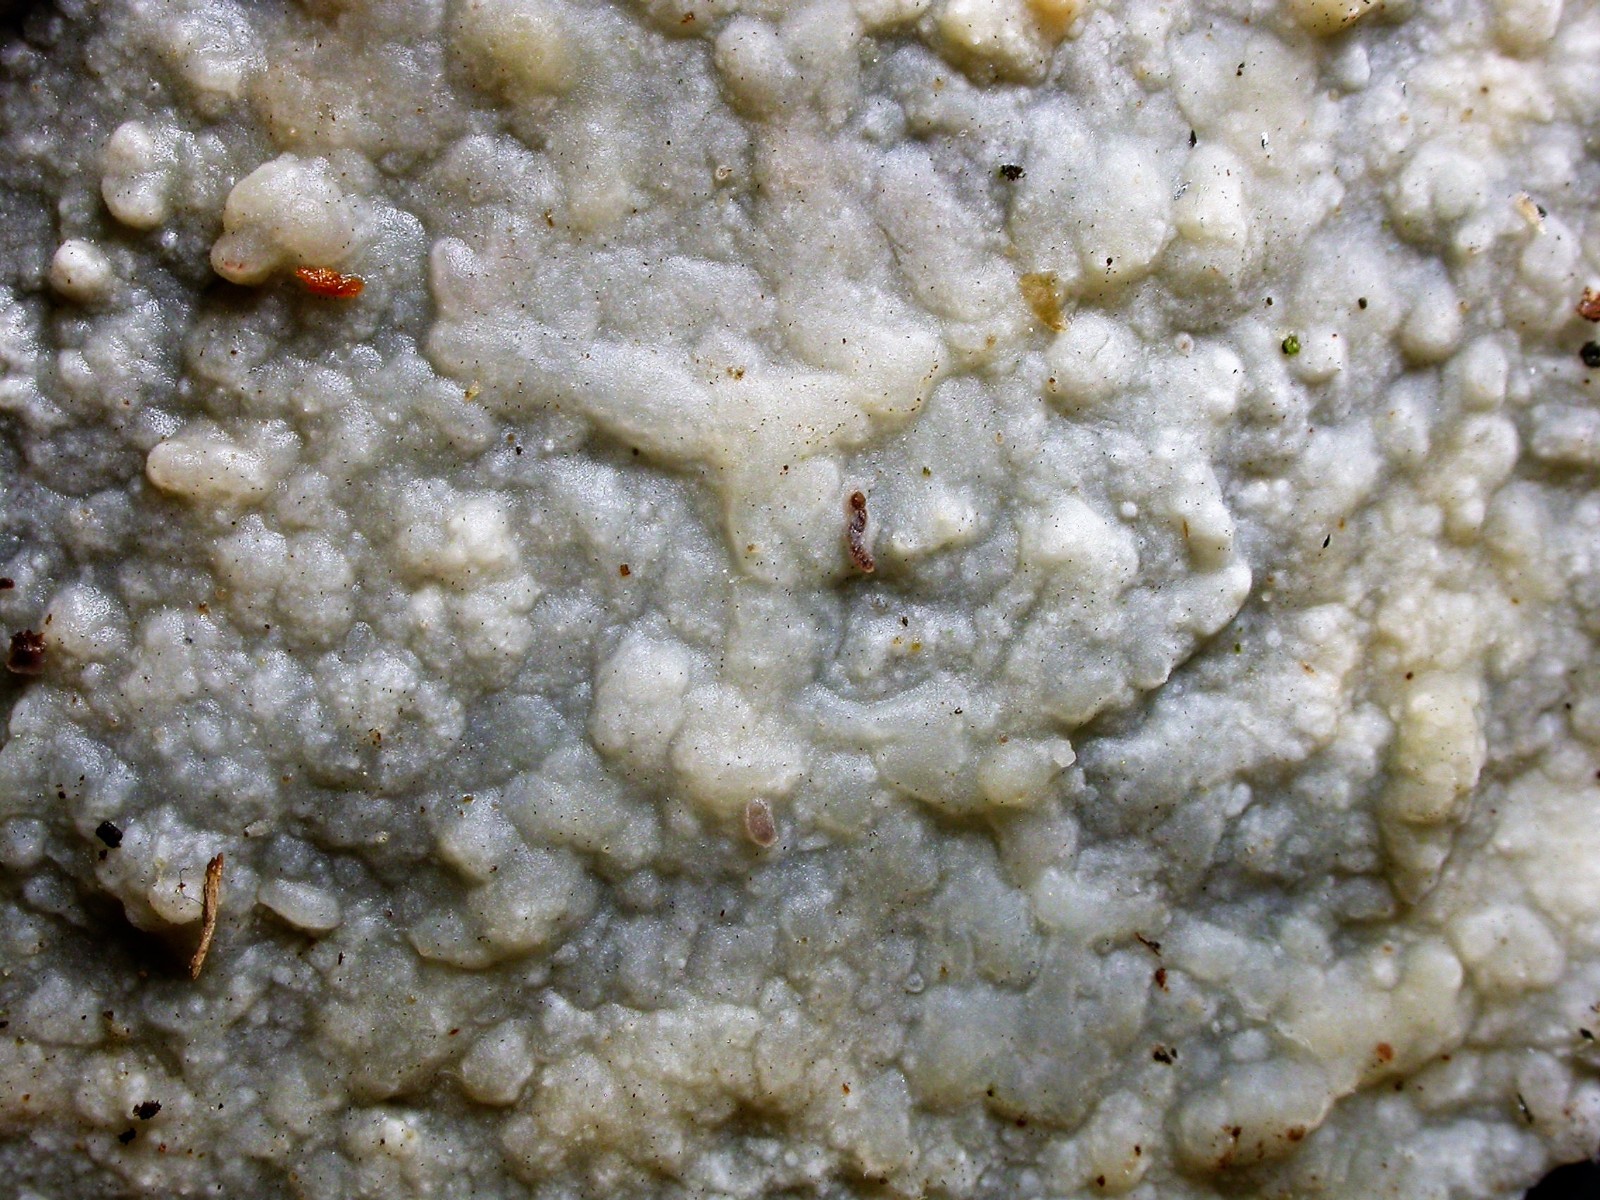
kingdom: Fungi
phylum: Basidiomycota
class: Agaricomycetes
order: Polyporales
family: Phanerochaetaceae
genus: Phlebiopsis
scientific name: Phlebiopsis gigantea
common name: kæmpebarksvamp
